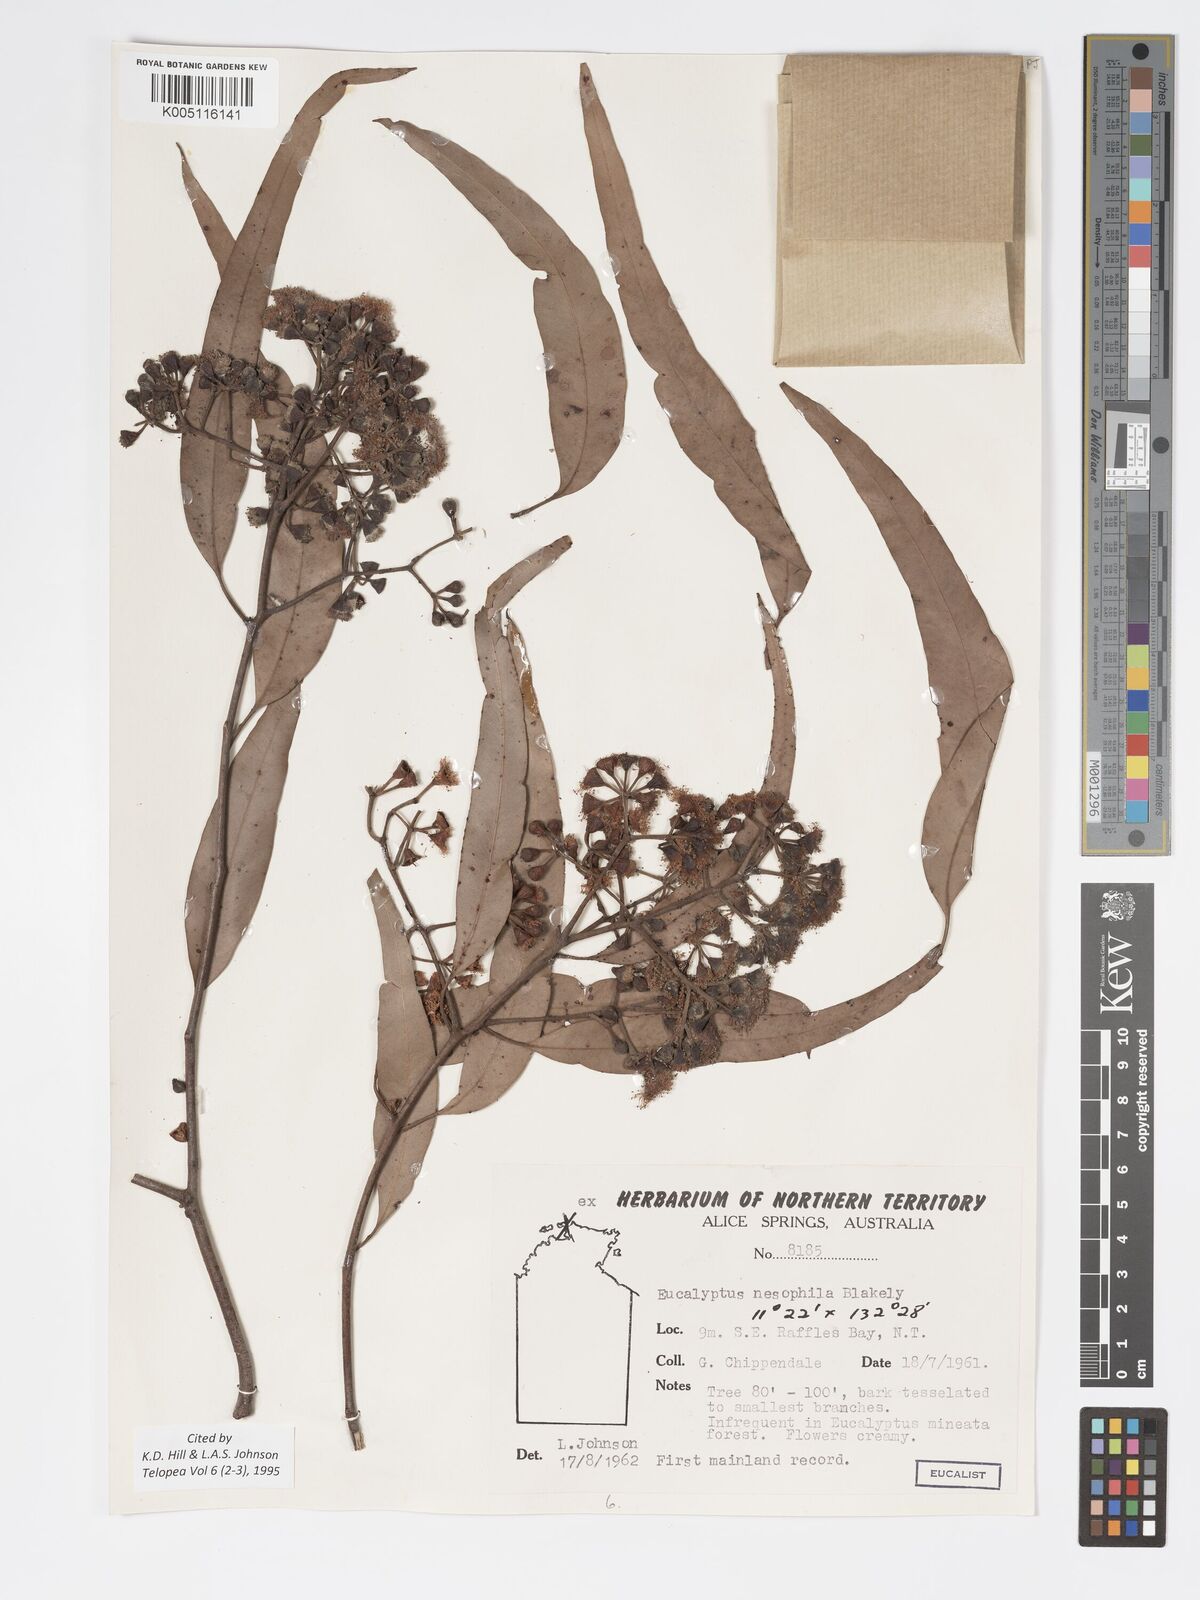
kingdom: Plantae
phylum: Tracheophyta
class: Magnoliopsida
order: Myrtales
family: Myrtaceae
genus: Corymbia
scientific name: Corymbia nesophila
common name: Melville-island-bloodwood
